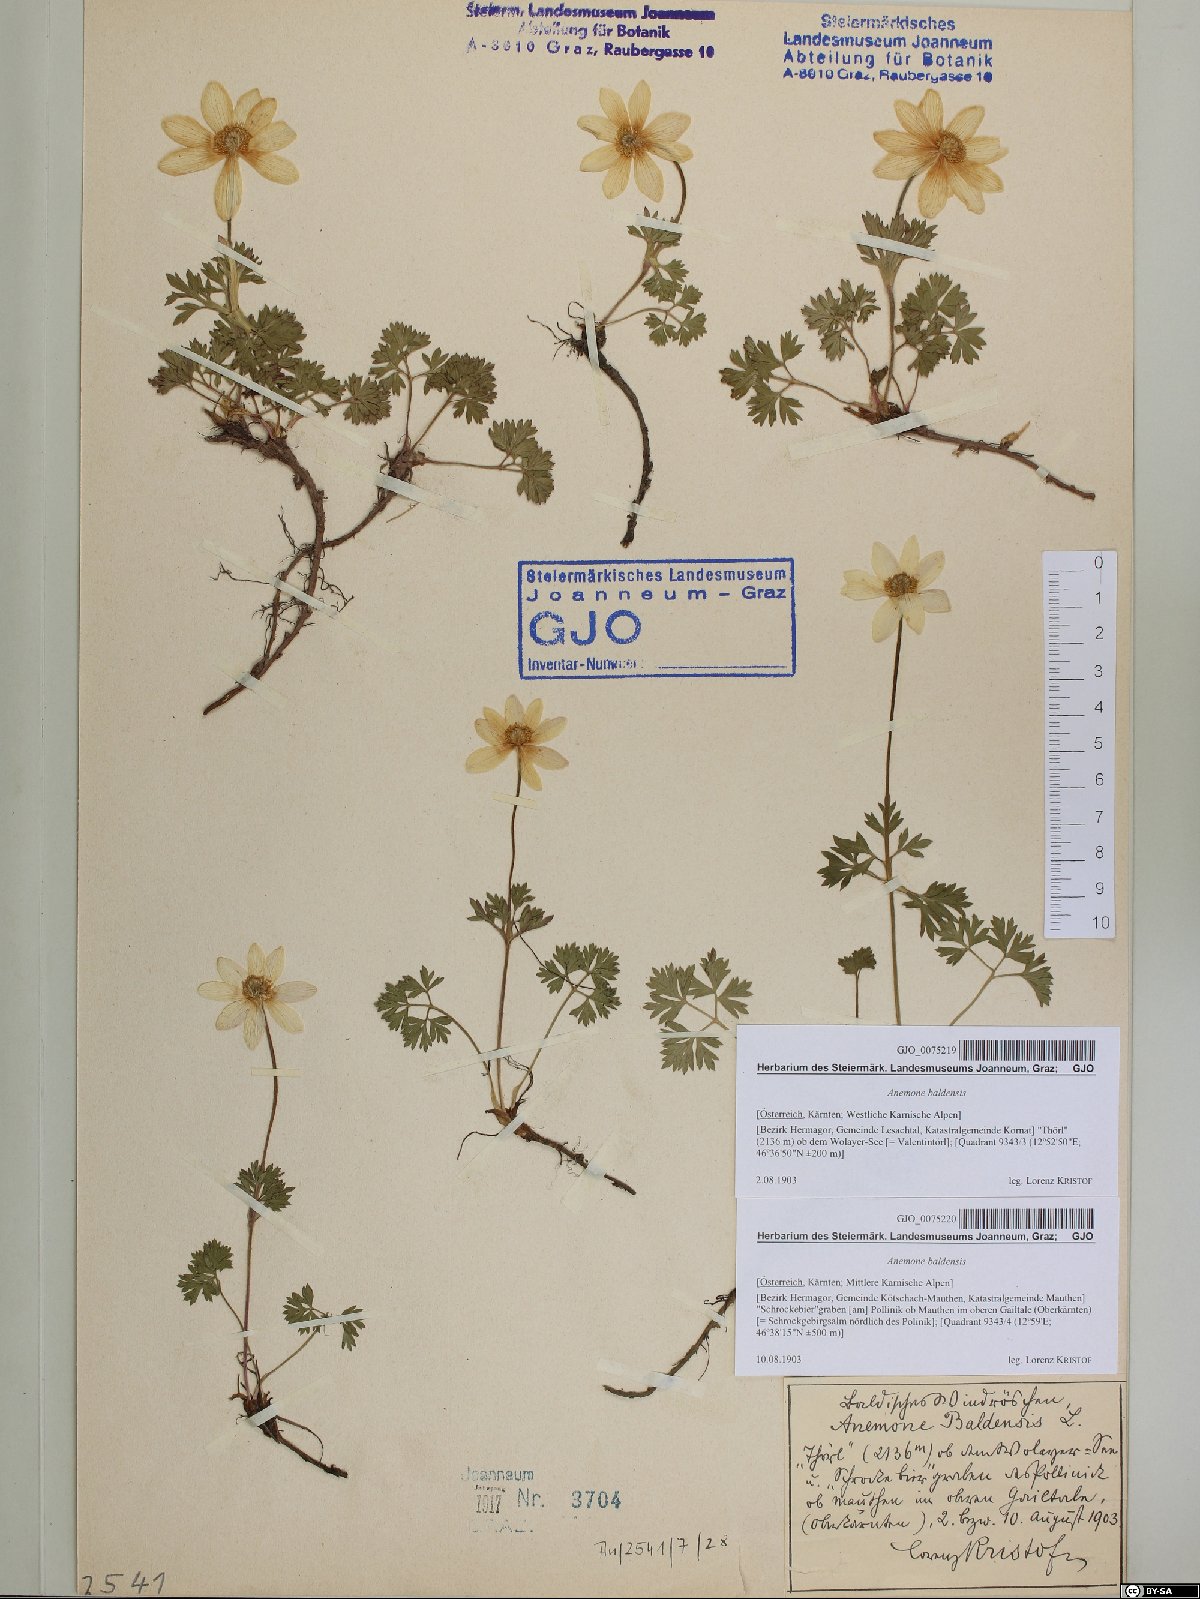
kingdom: Plantae
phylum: Tracheophyta
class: Magnoliopsida
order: Ranunculales
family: Ranunculaceae
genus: Anemone
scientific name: Anemone baldensis
